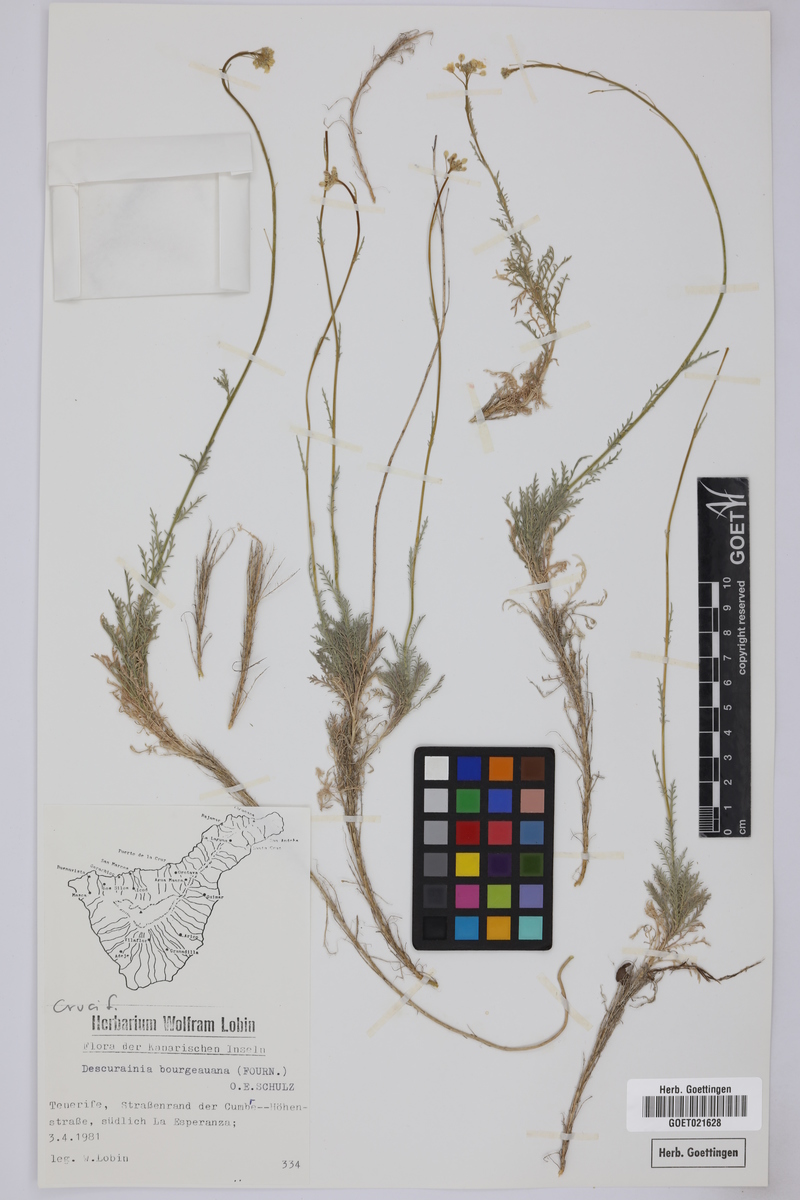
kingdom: Plantae
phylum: Tracheophyta
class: Magnoliopsida
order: Brassicales
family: Brassicaceae
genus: Descurainia
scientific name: Descurainia bourgaeana
